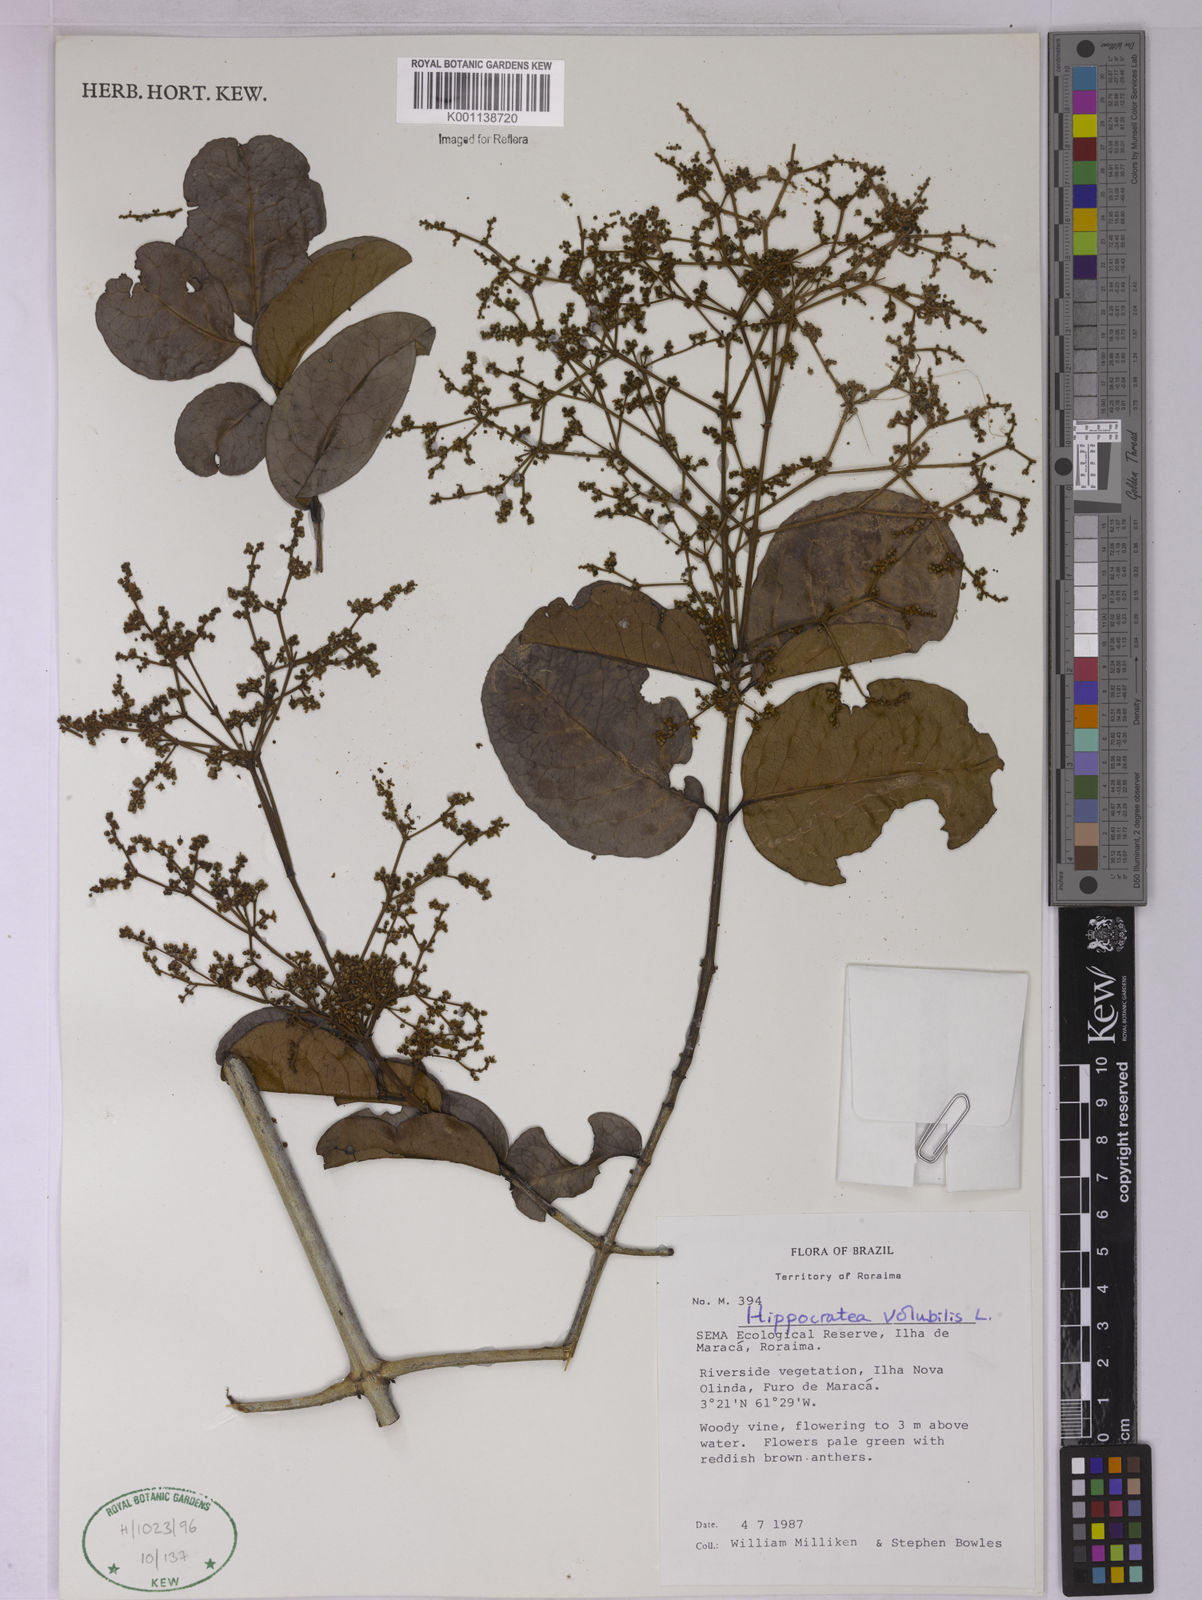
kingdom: Plantae
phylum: Tracheophyta
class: Magnoliopsida
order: Celastrales
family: Celastraceae
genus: Hippocratea
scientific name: Hippocratea volubilis
